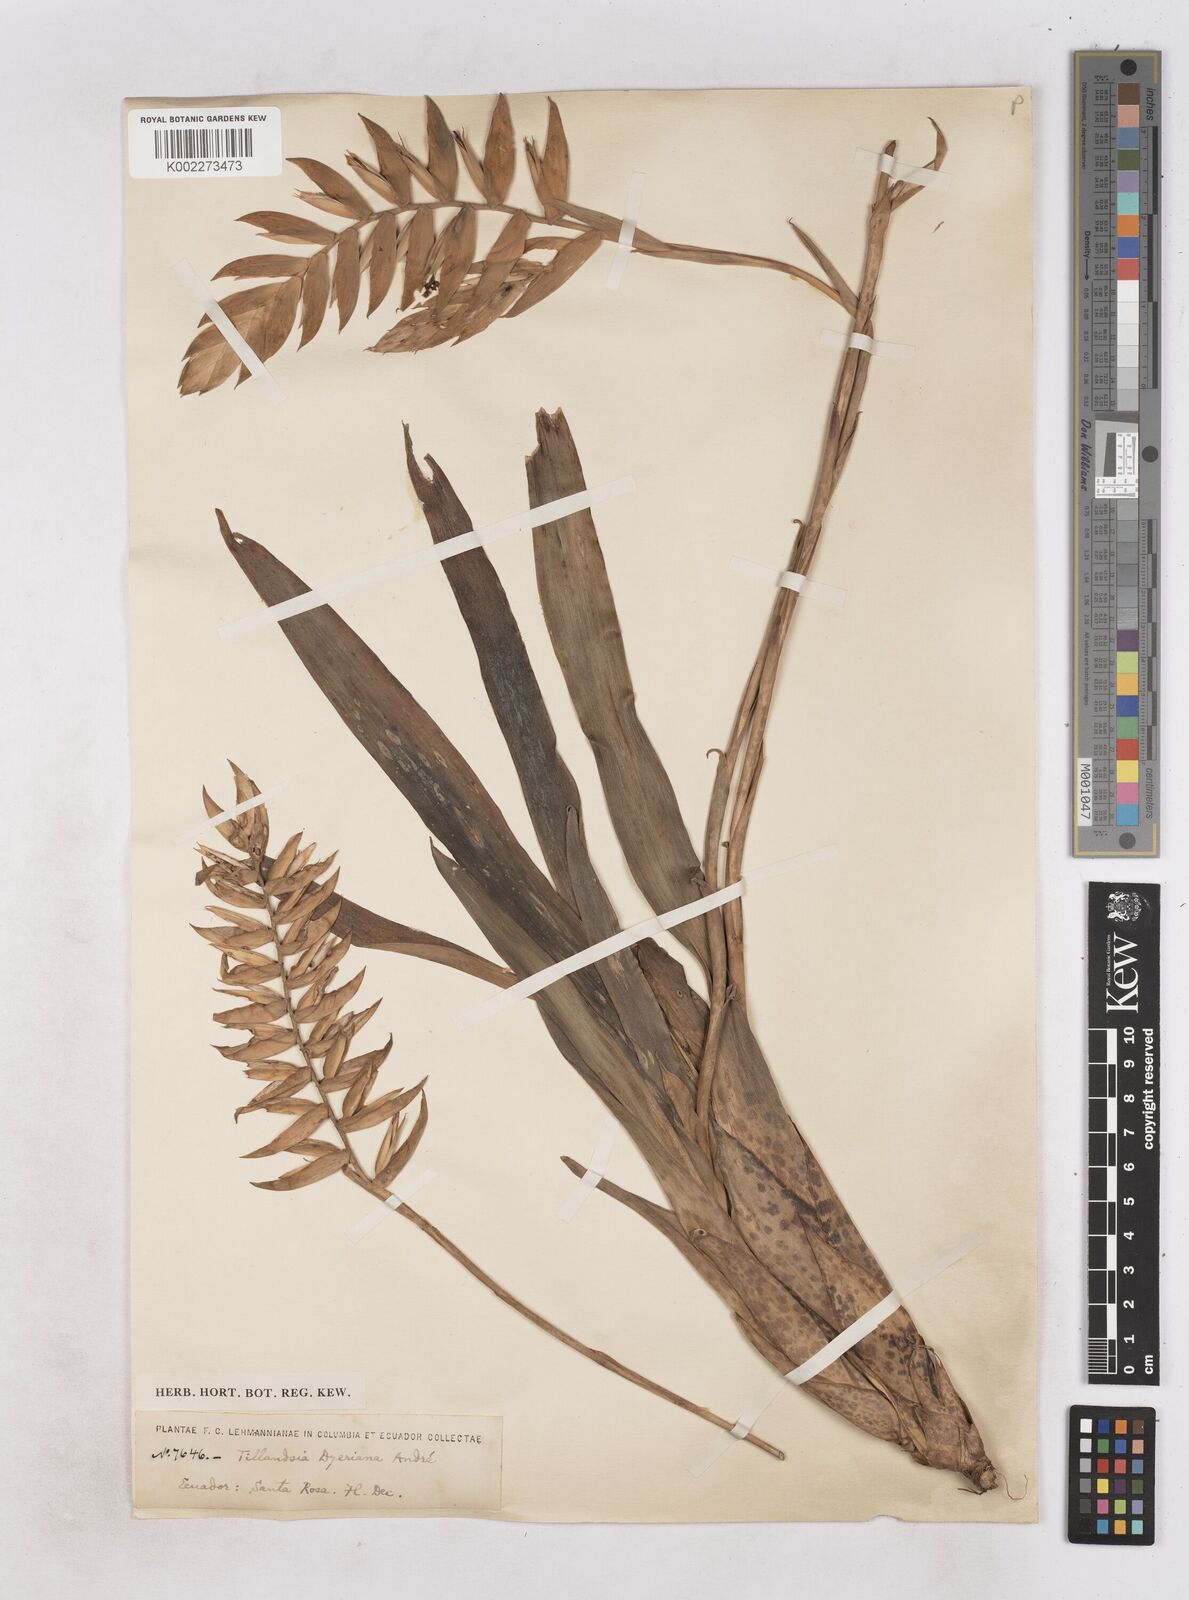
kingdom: Plantae
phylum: Tracheophyta
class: Liliopsida
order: Poales
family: Bromeliaceae
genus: Racinaea
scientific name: Racinaea dyeriana
